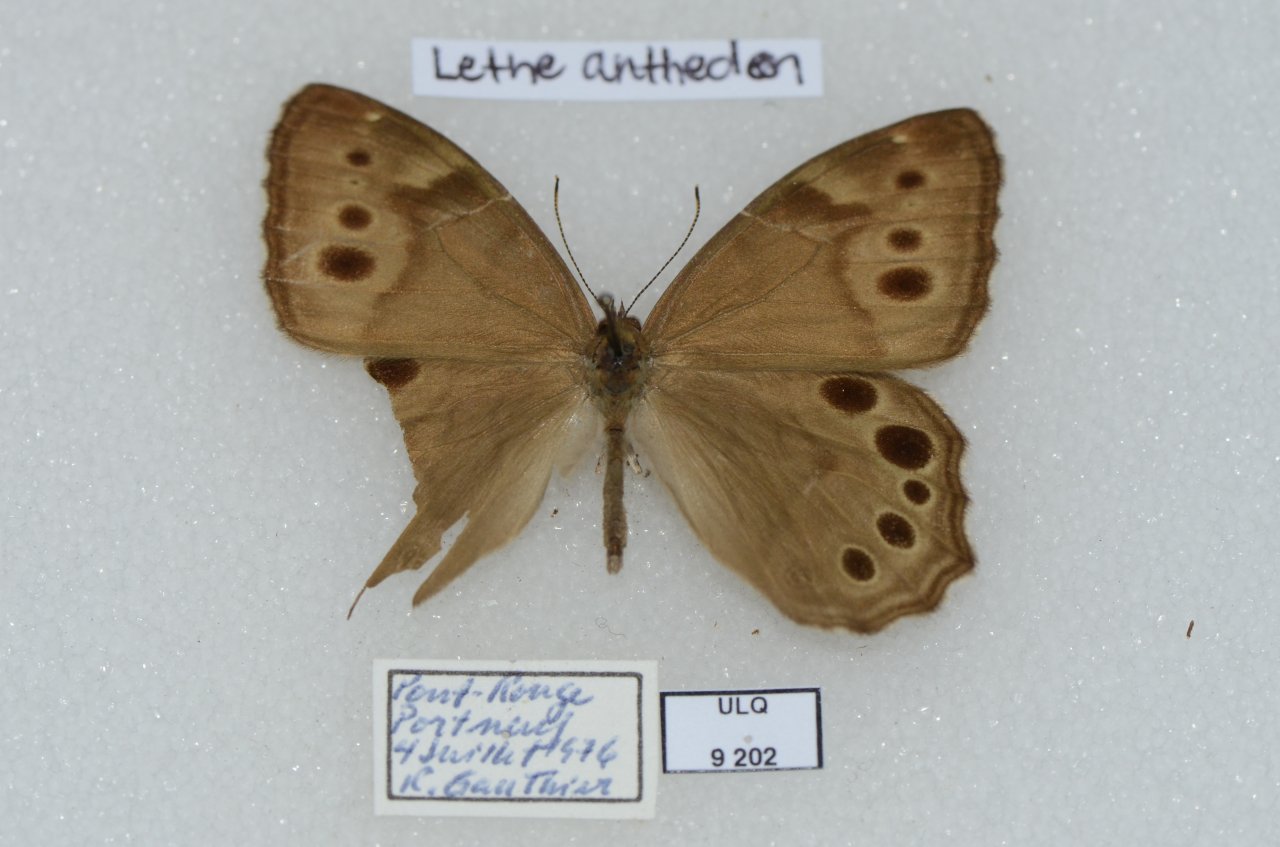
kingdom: Animalia
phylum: Arthropoda
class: Insecta
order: Lepidoptera
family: Nymphalidae
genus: Lethe
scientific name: Lethe anthedon
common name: Northern Pearly-Eye
